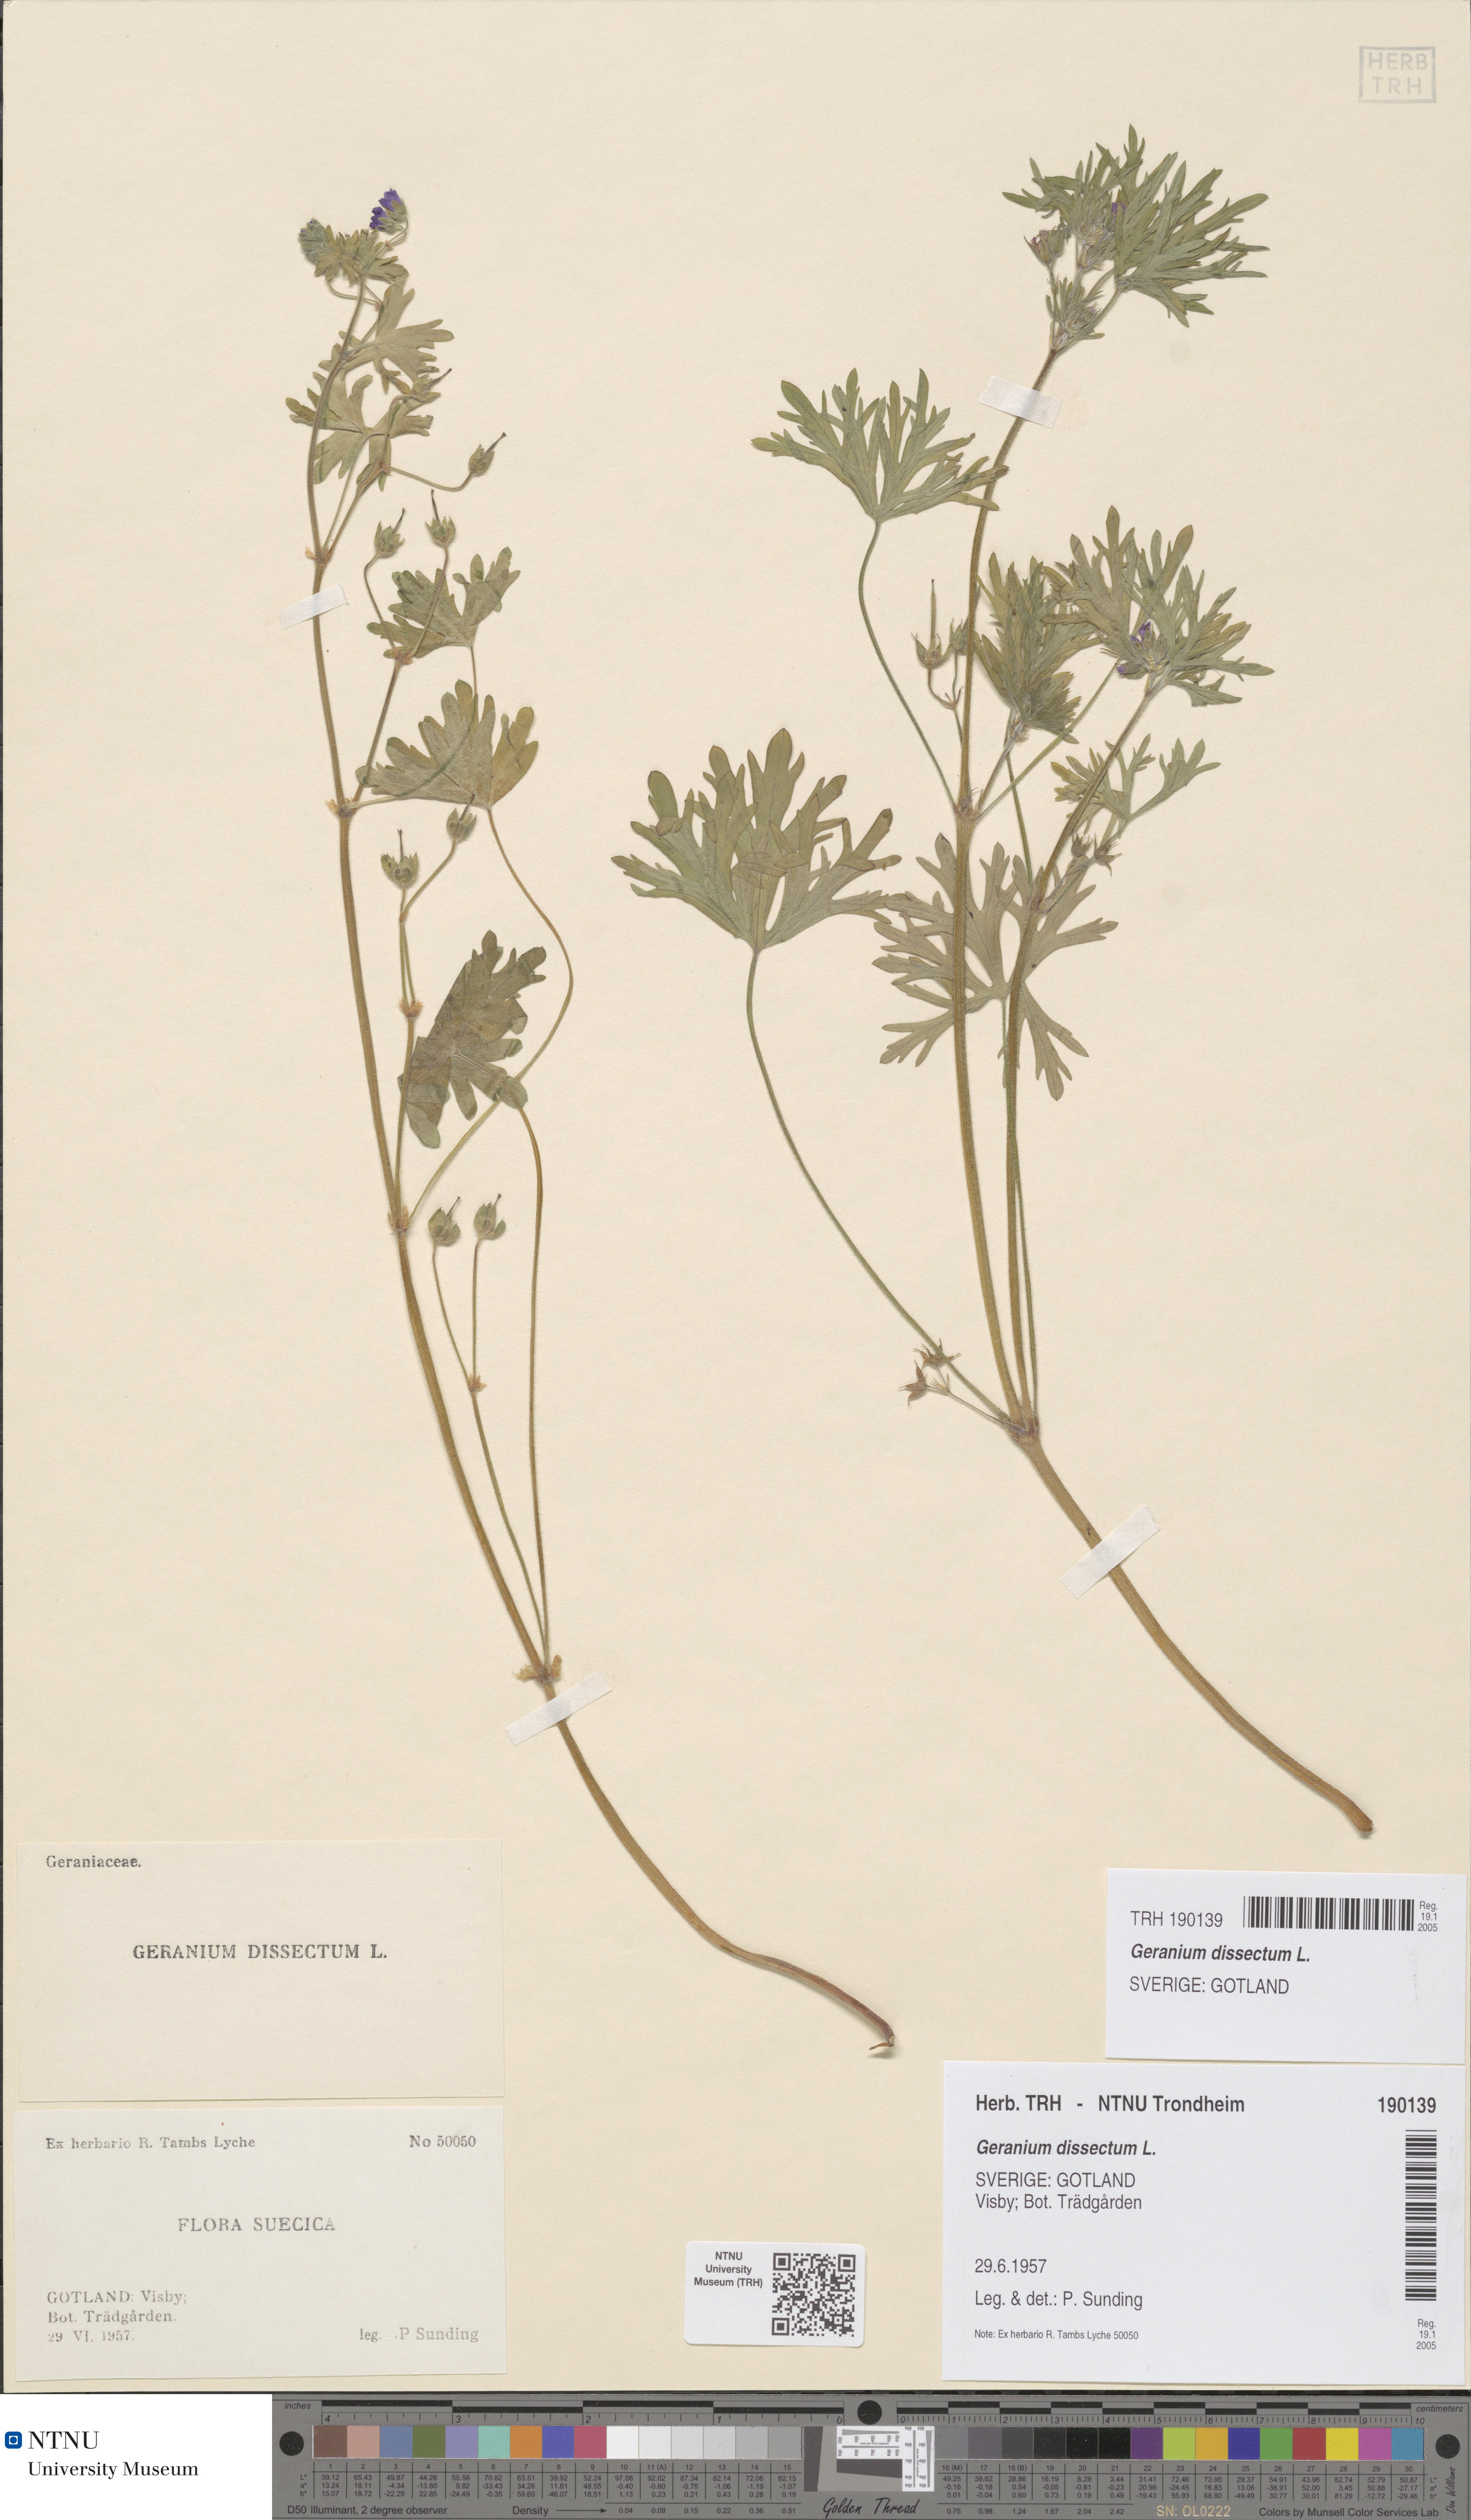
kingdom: Plantae
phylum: Tracheophyta
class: Magnoliopsida
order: Geraniales
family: Geraniaceae
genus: Geranium
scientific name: Geranium dissectum
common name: Cut-leaved crane's-bill
